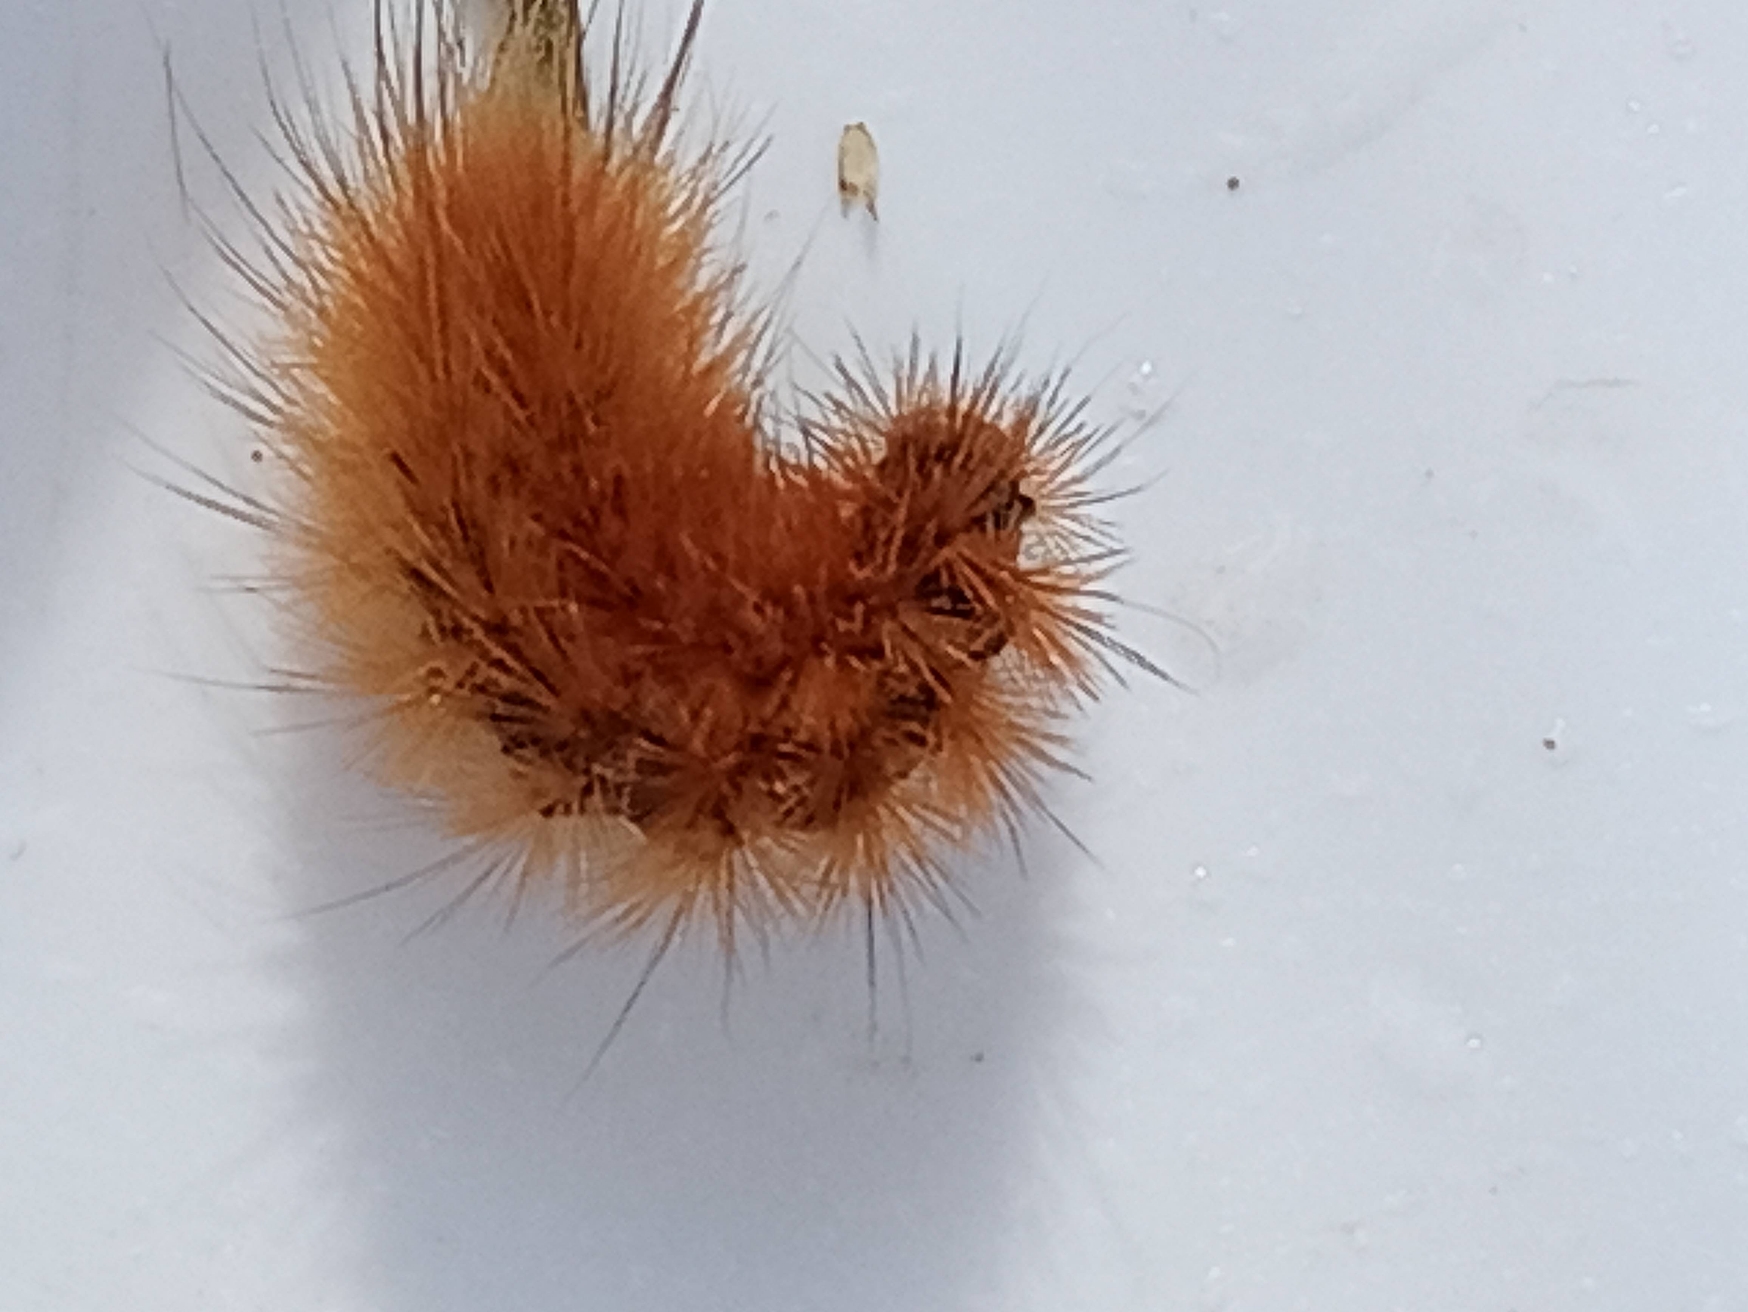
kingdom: Animalia
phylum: Arthropoda
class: Insecta
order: Lepidoptera
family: Erebidae
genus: Phragmatobia
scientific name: Phragmatobia fuliginosa
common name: Kanelbjørn
